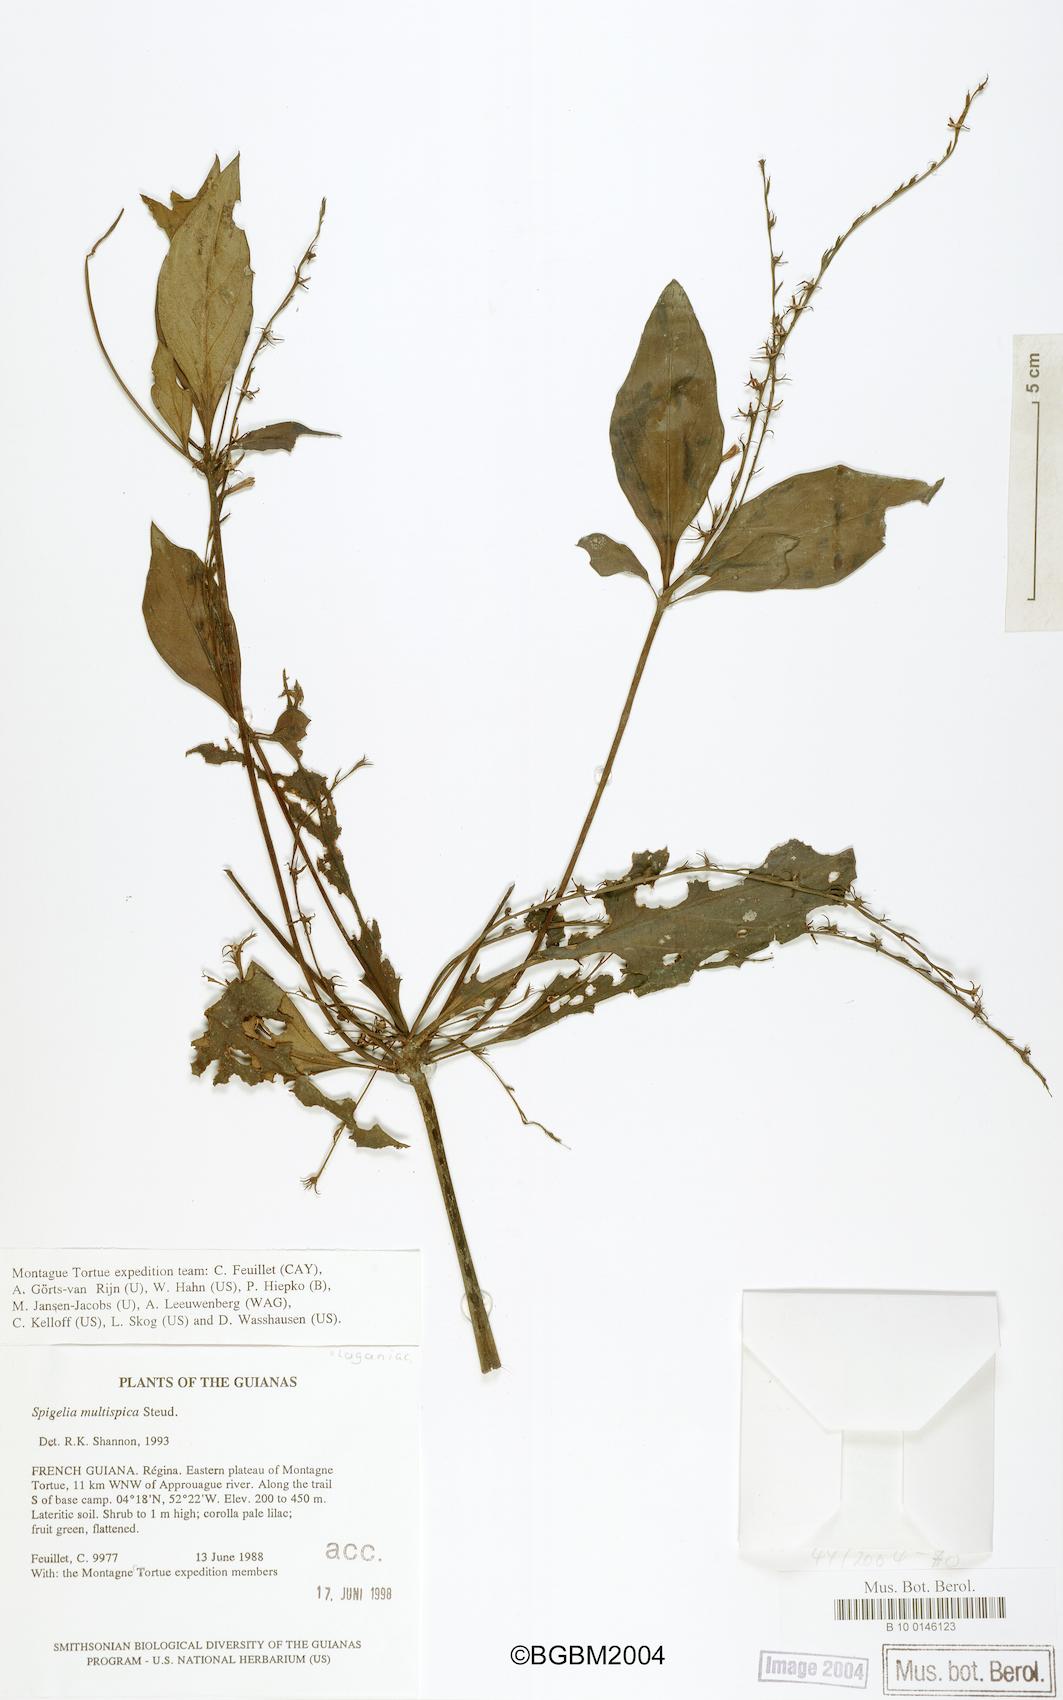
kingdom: Plantae
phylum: Tracheophyta
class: Magnoliopsida
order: Gentianales
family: Loganiaceae
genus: Spigelia
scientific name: Spigelia hamellioides
